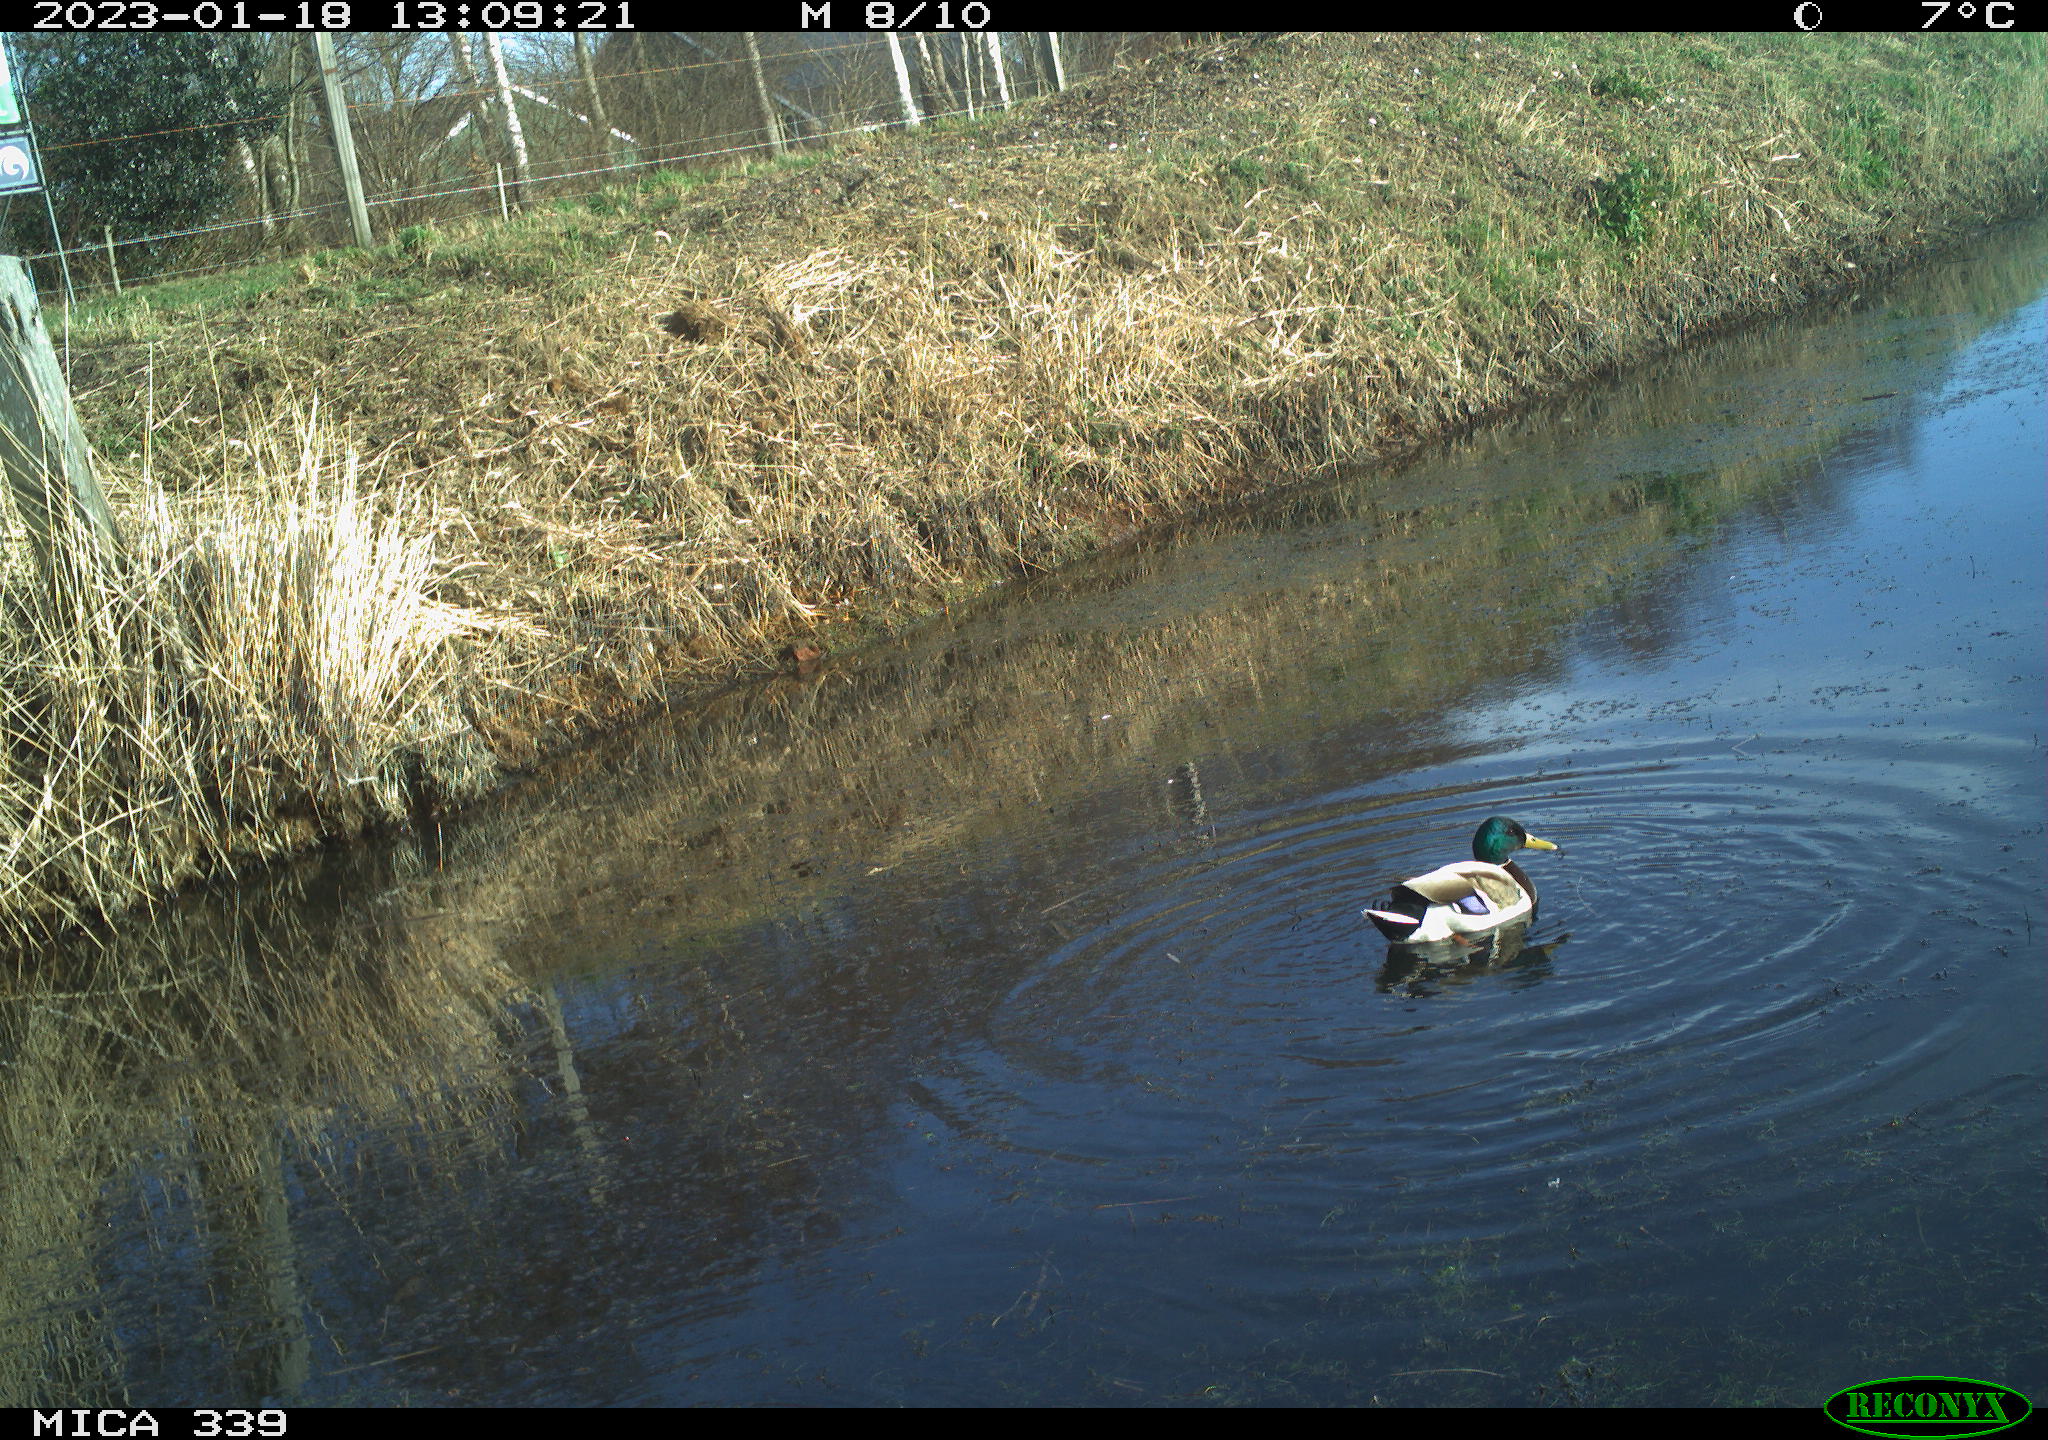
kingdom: Animalia
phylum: Chordata
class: Aves
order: Anseriformes
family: Anatidae
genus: Anas
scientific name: Anas
